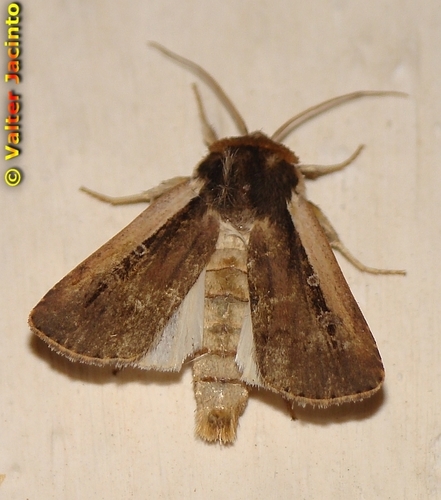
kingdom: Animalia
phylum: Arthropoda
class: Insecta
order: Lepidoptera
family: Noctuidae
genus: Ochropleura
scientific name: Ochropleura leucogaster
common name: Radford's flame shoulder
